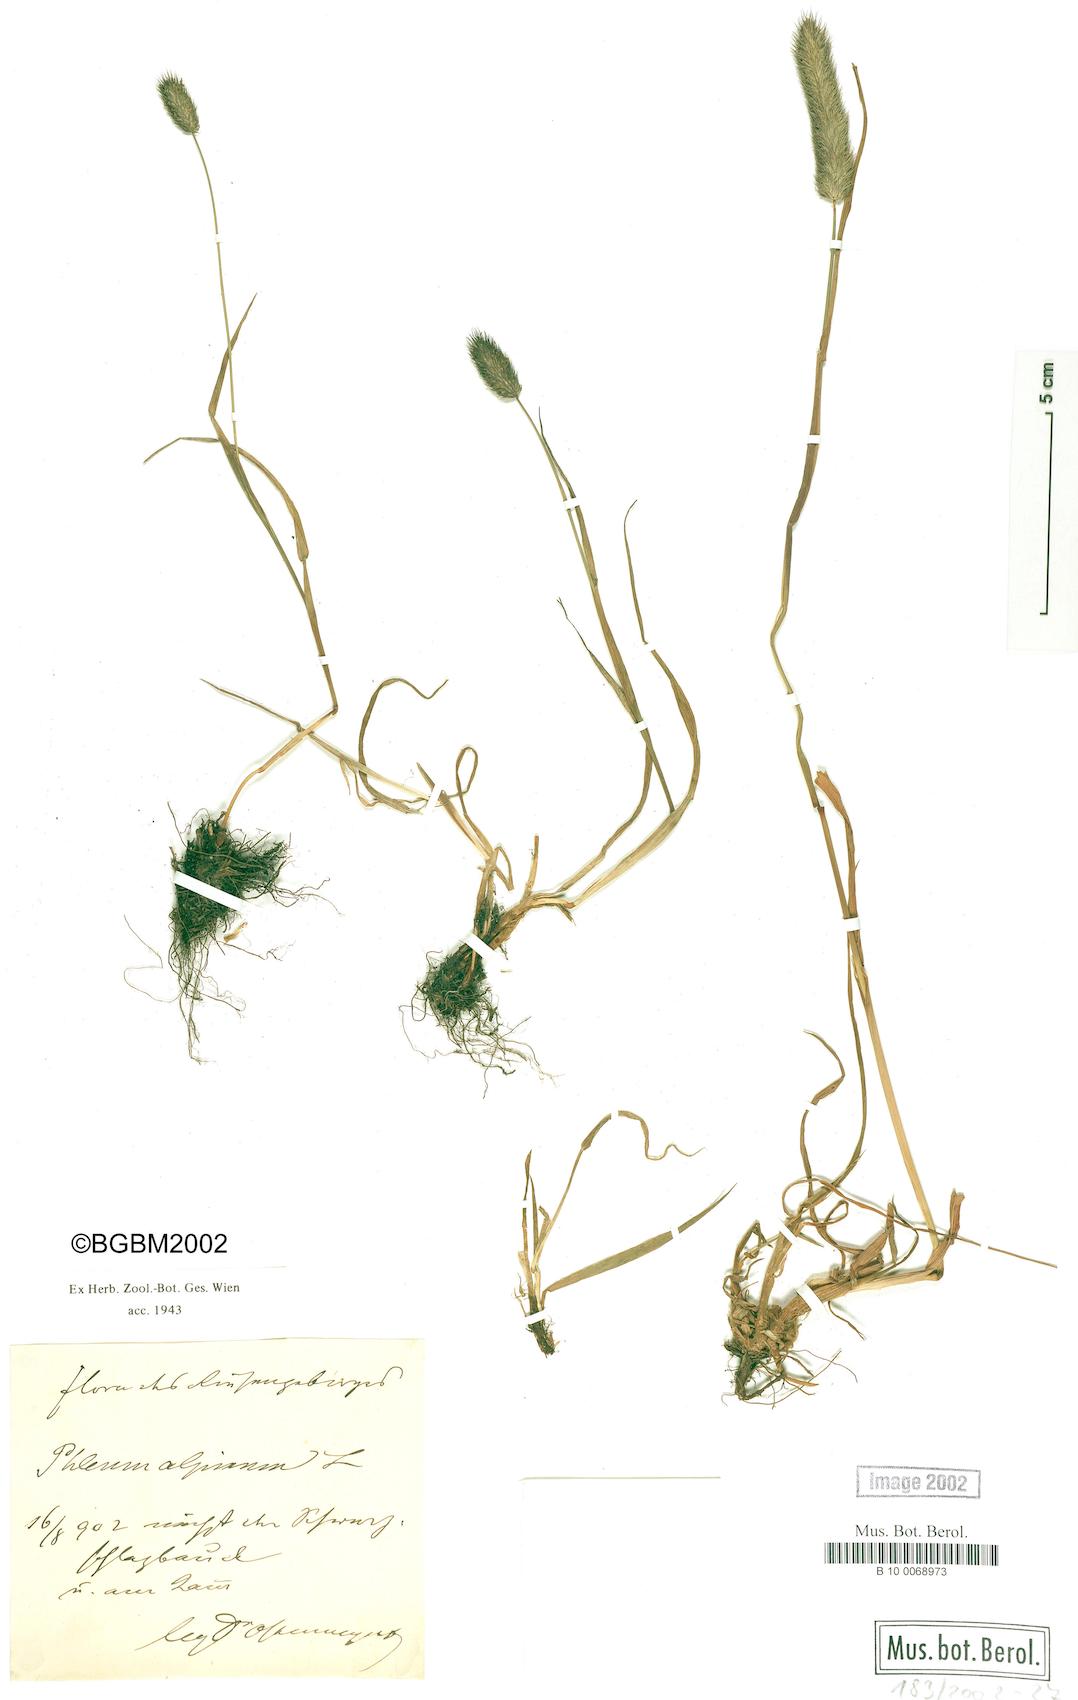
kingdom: Plantae
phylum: Tracheophyta
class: Liliopsida
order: Poales
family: Poaceae
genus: Phleum
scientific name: Phleum alpinum
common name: Alpine cat's-tail
